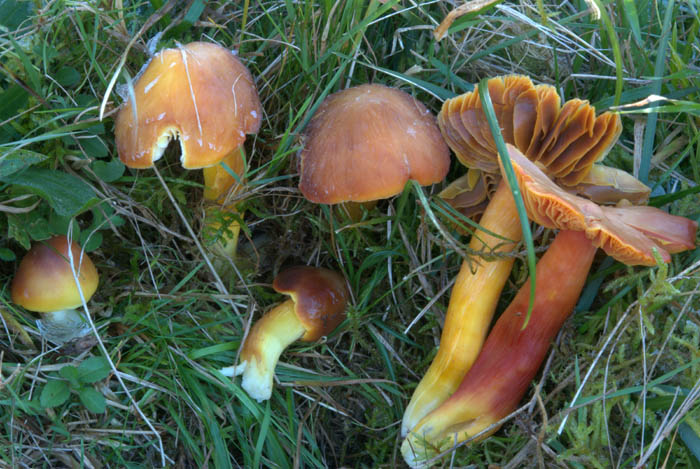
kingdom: Fungi
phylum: Basidiomycota
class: Agaricomycetes
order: Agaricales
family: Hygrophoraceae
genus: Hygrocybe
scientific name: Hygrocybe punicea
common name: skarlagen-vokshat
